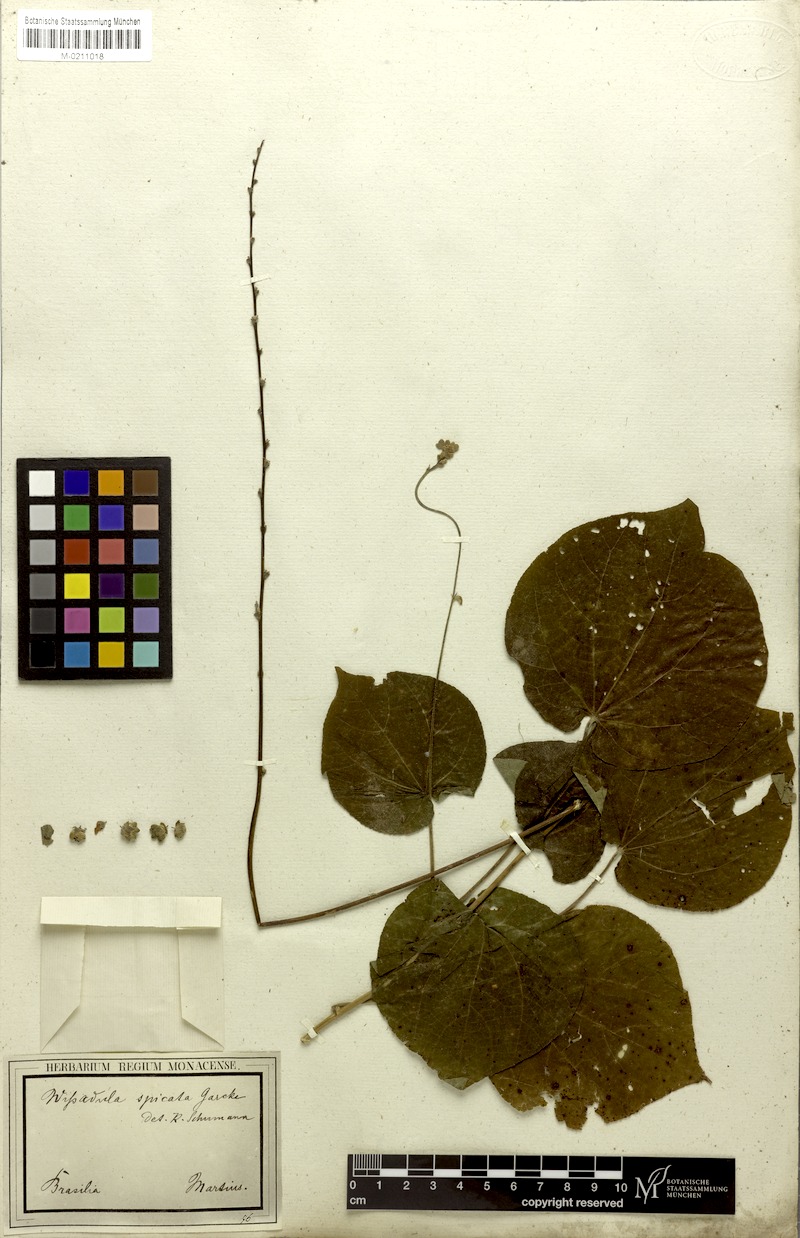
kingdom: Plantae
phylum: Tracheophyta
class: Magnoliopsida
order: Malvales
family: Malvaceae
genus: Allobriquetia
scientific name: Allobriquetia spicata
